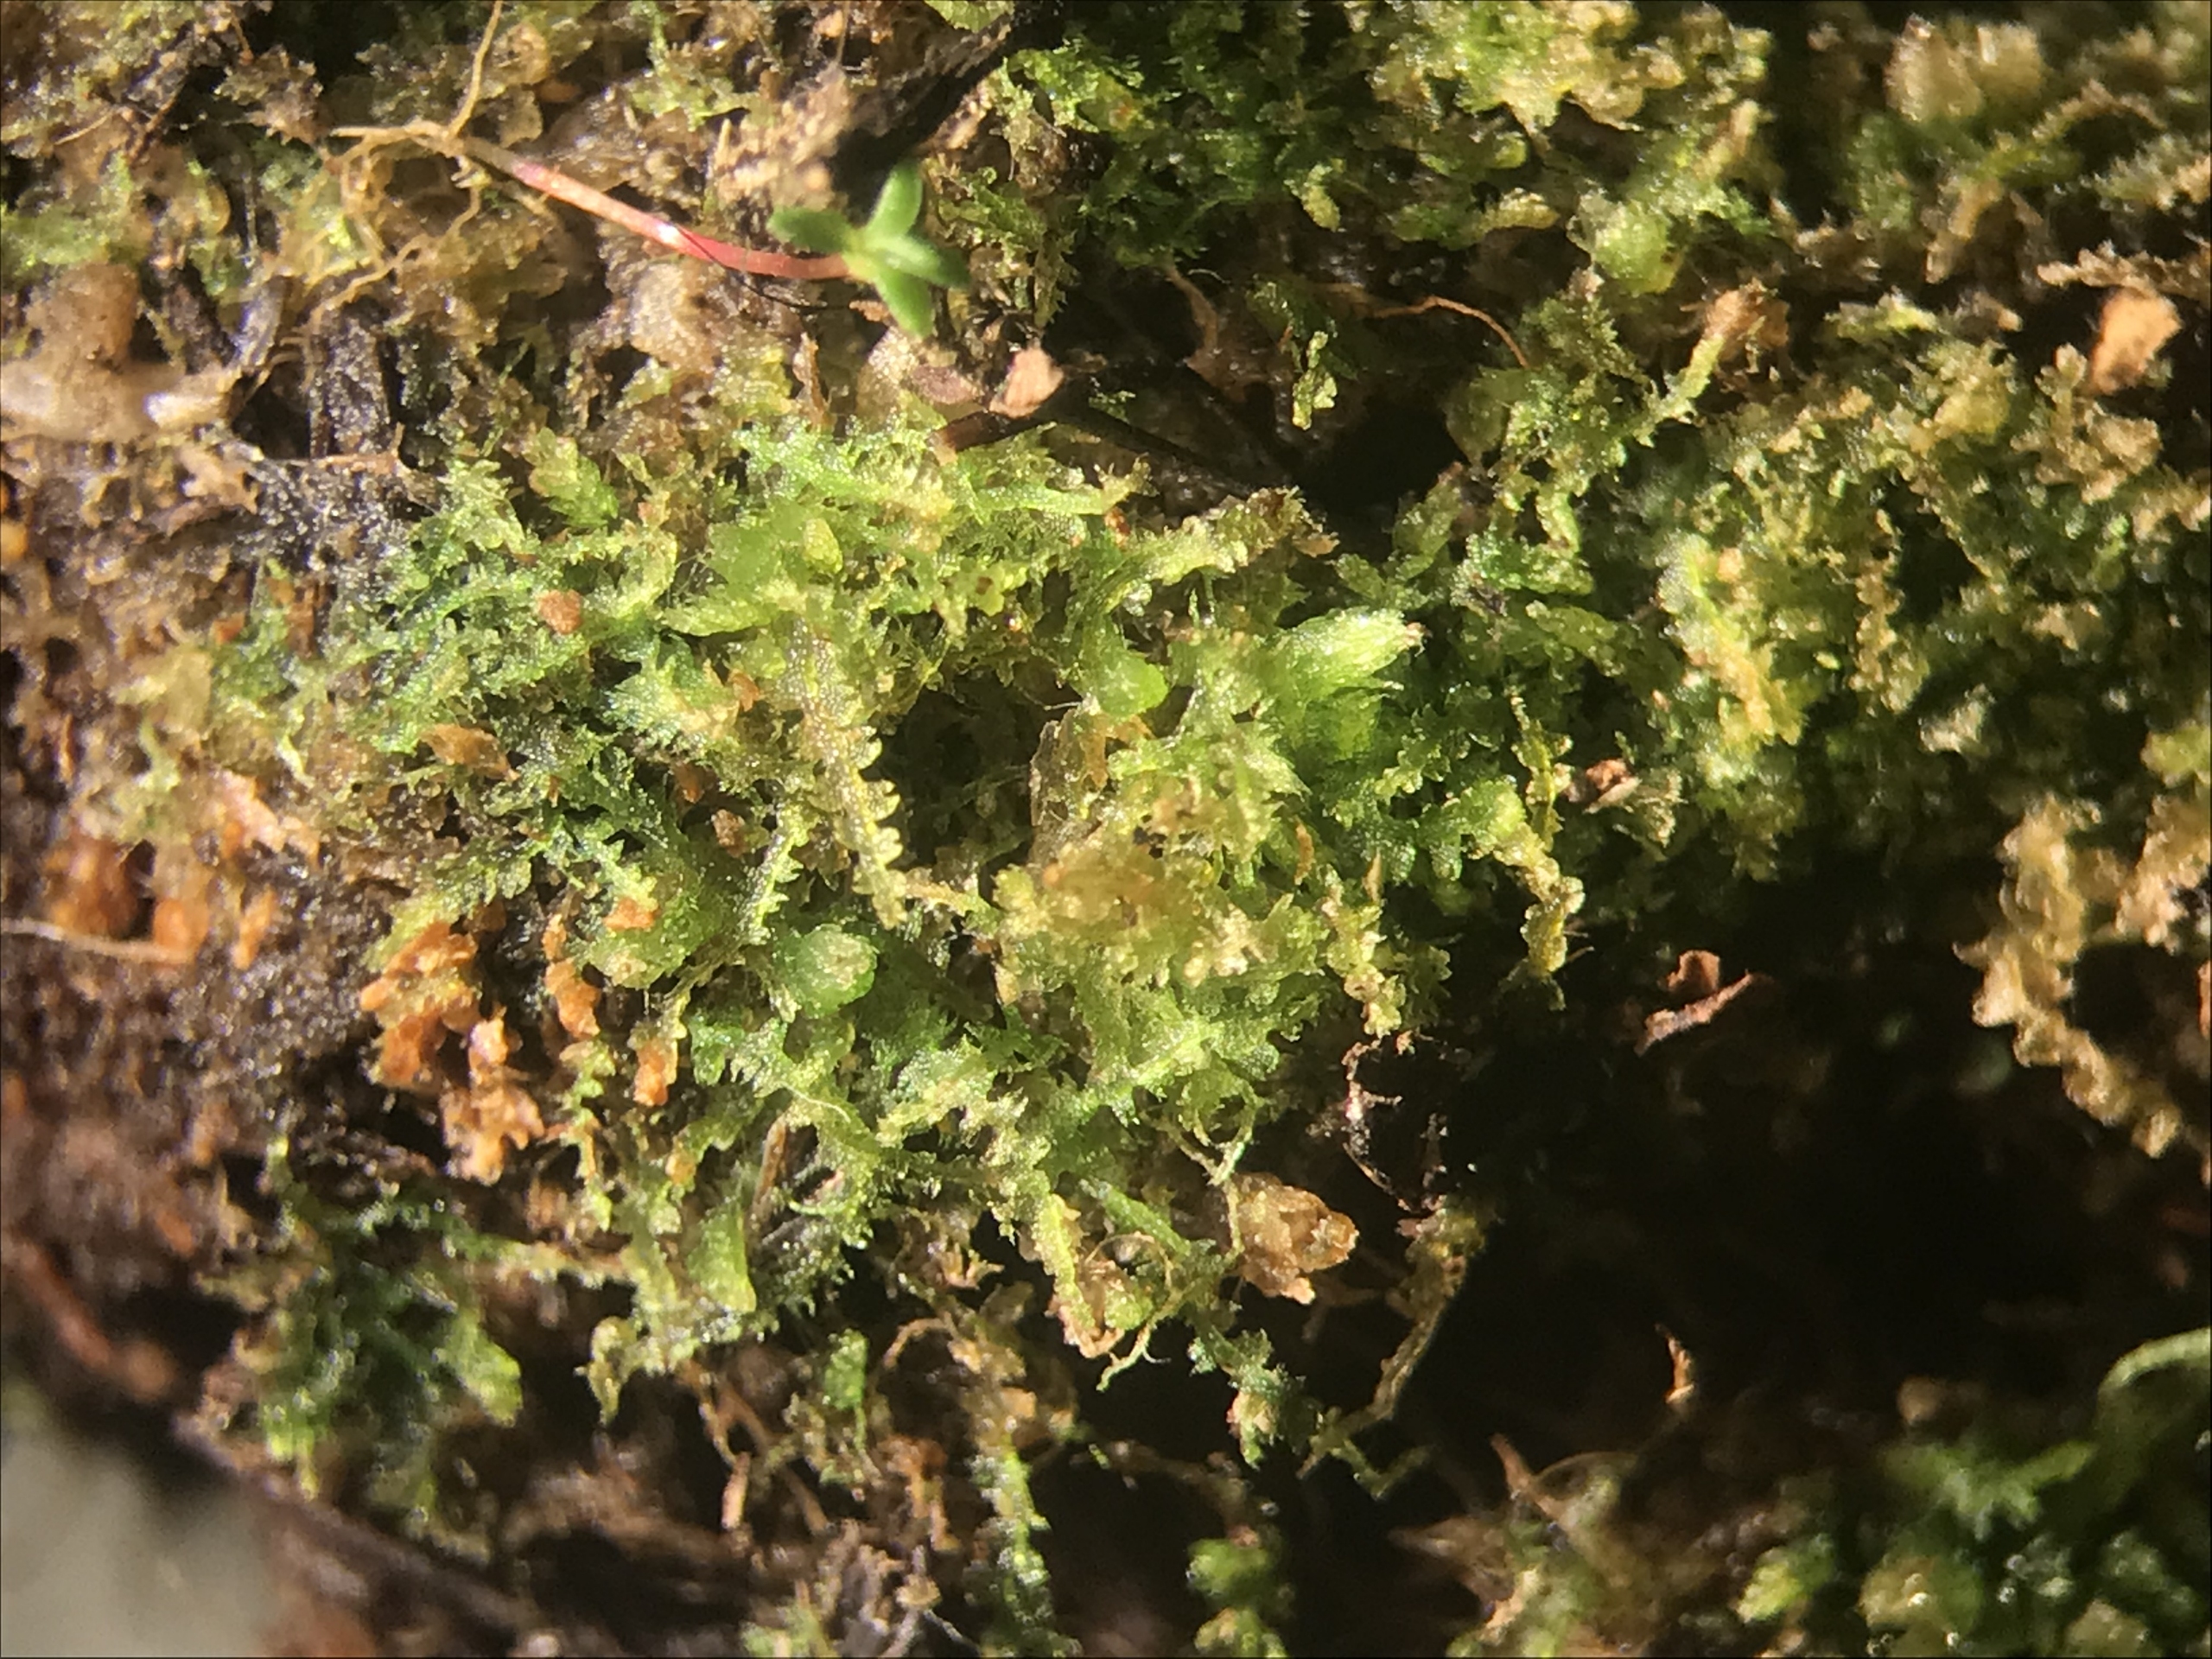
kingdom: Plantae
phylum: Marchantiophyta
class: Jungermanniopsida
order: Jungermanniales
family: Cephaloziaceae
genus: Fuscocephaloziopsis
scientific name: Fuscocephaloziopsis connivens
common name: Flad kantbæger
